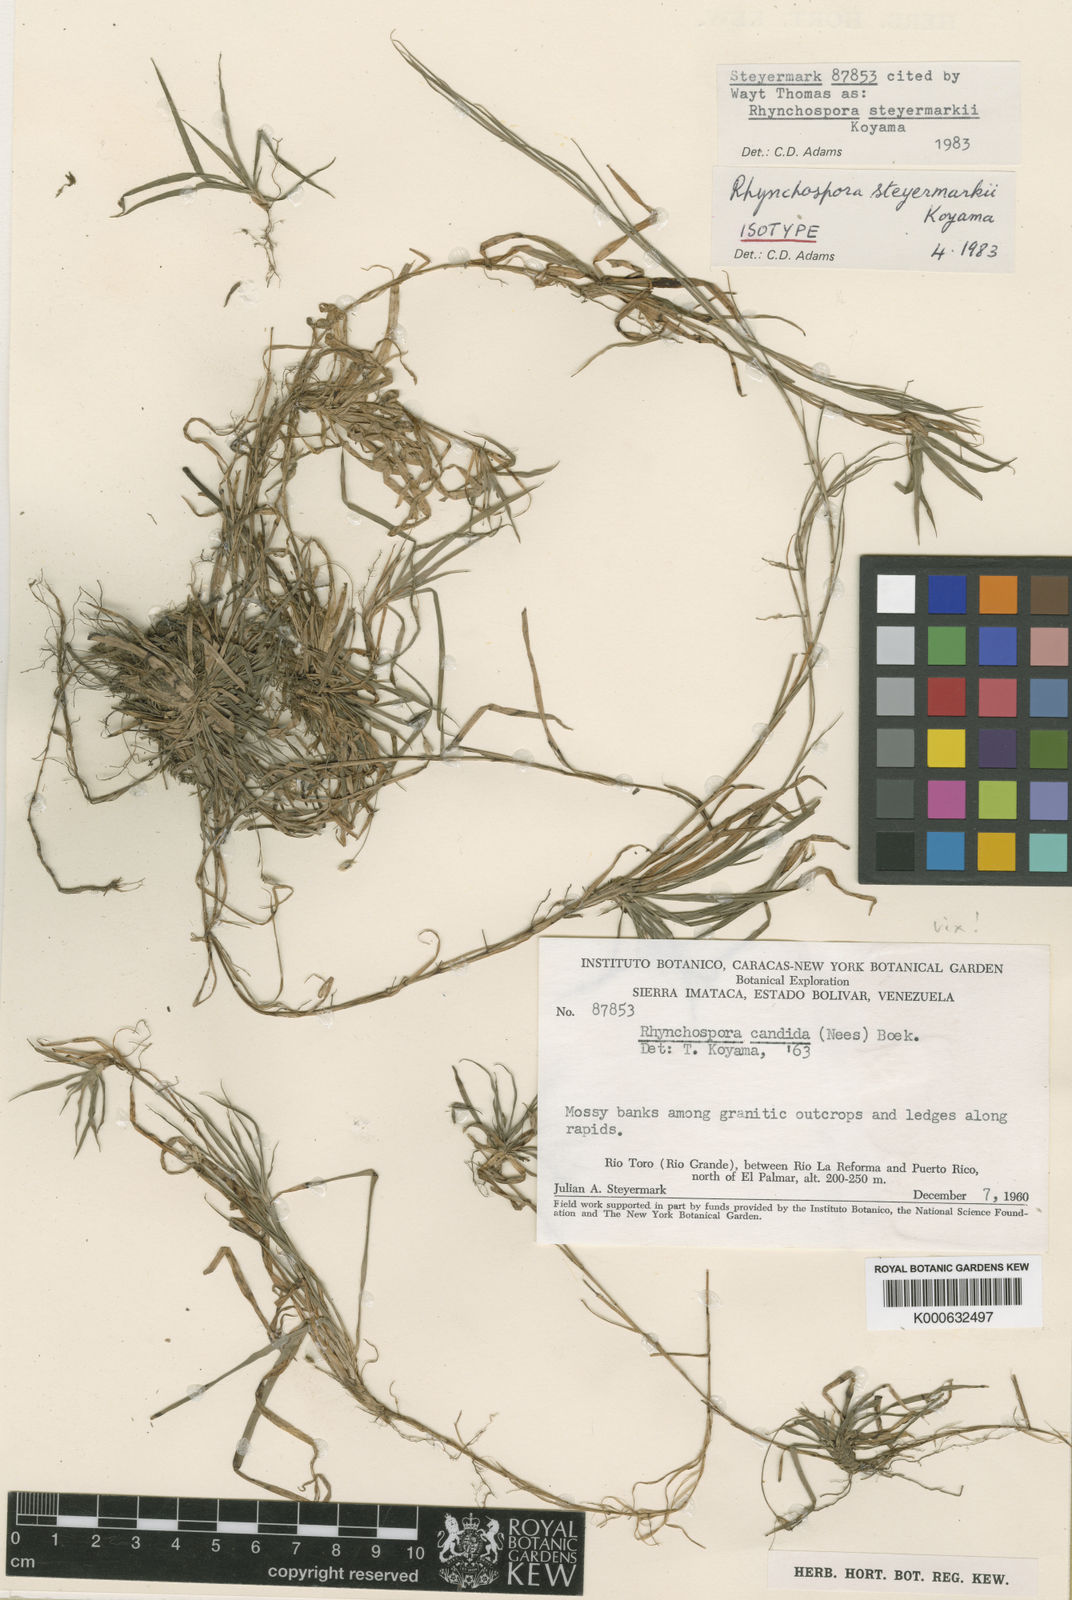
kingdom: Plantae
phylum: Tracheophyta
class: Liliopsida
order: Poales
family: Cyperaceae
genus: Rhynchospora
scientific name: Rhynchospora steyermarkii
